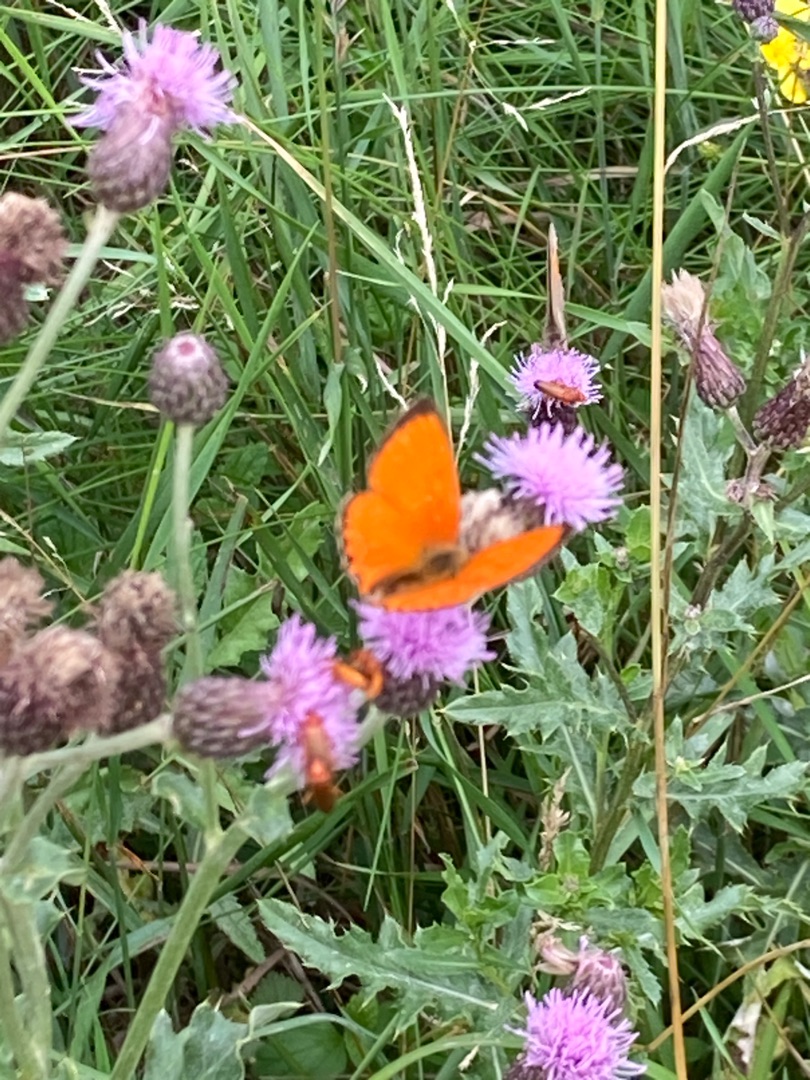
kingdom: Animalia
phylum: Arthropoda
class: Insecta
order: Lepidoptera
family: Lycaenidae
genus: Lycaena
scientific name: Lycaena virgaureae
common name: Dukatsommerfugl
